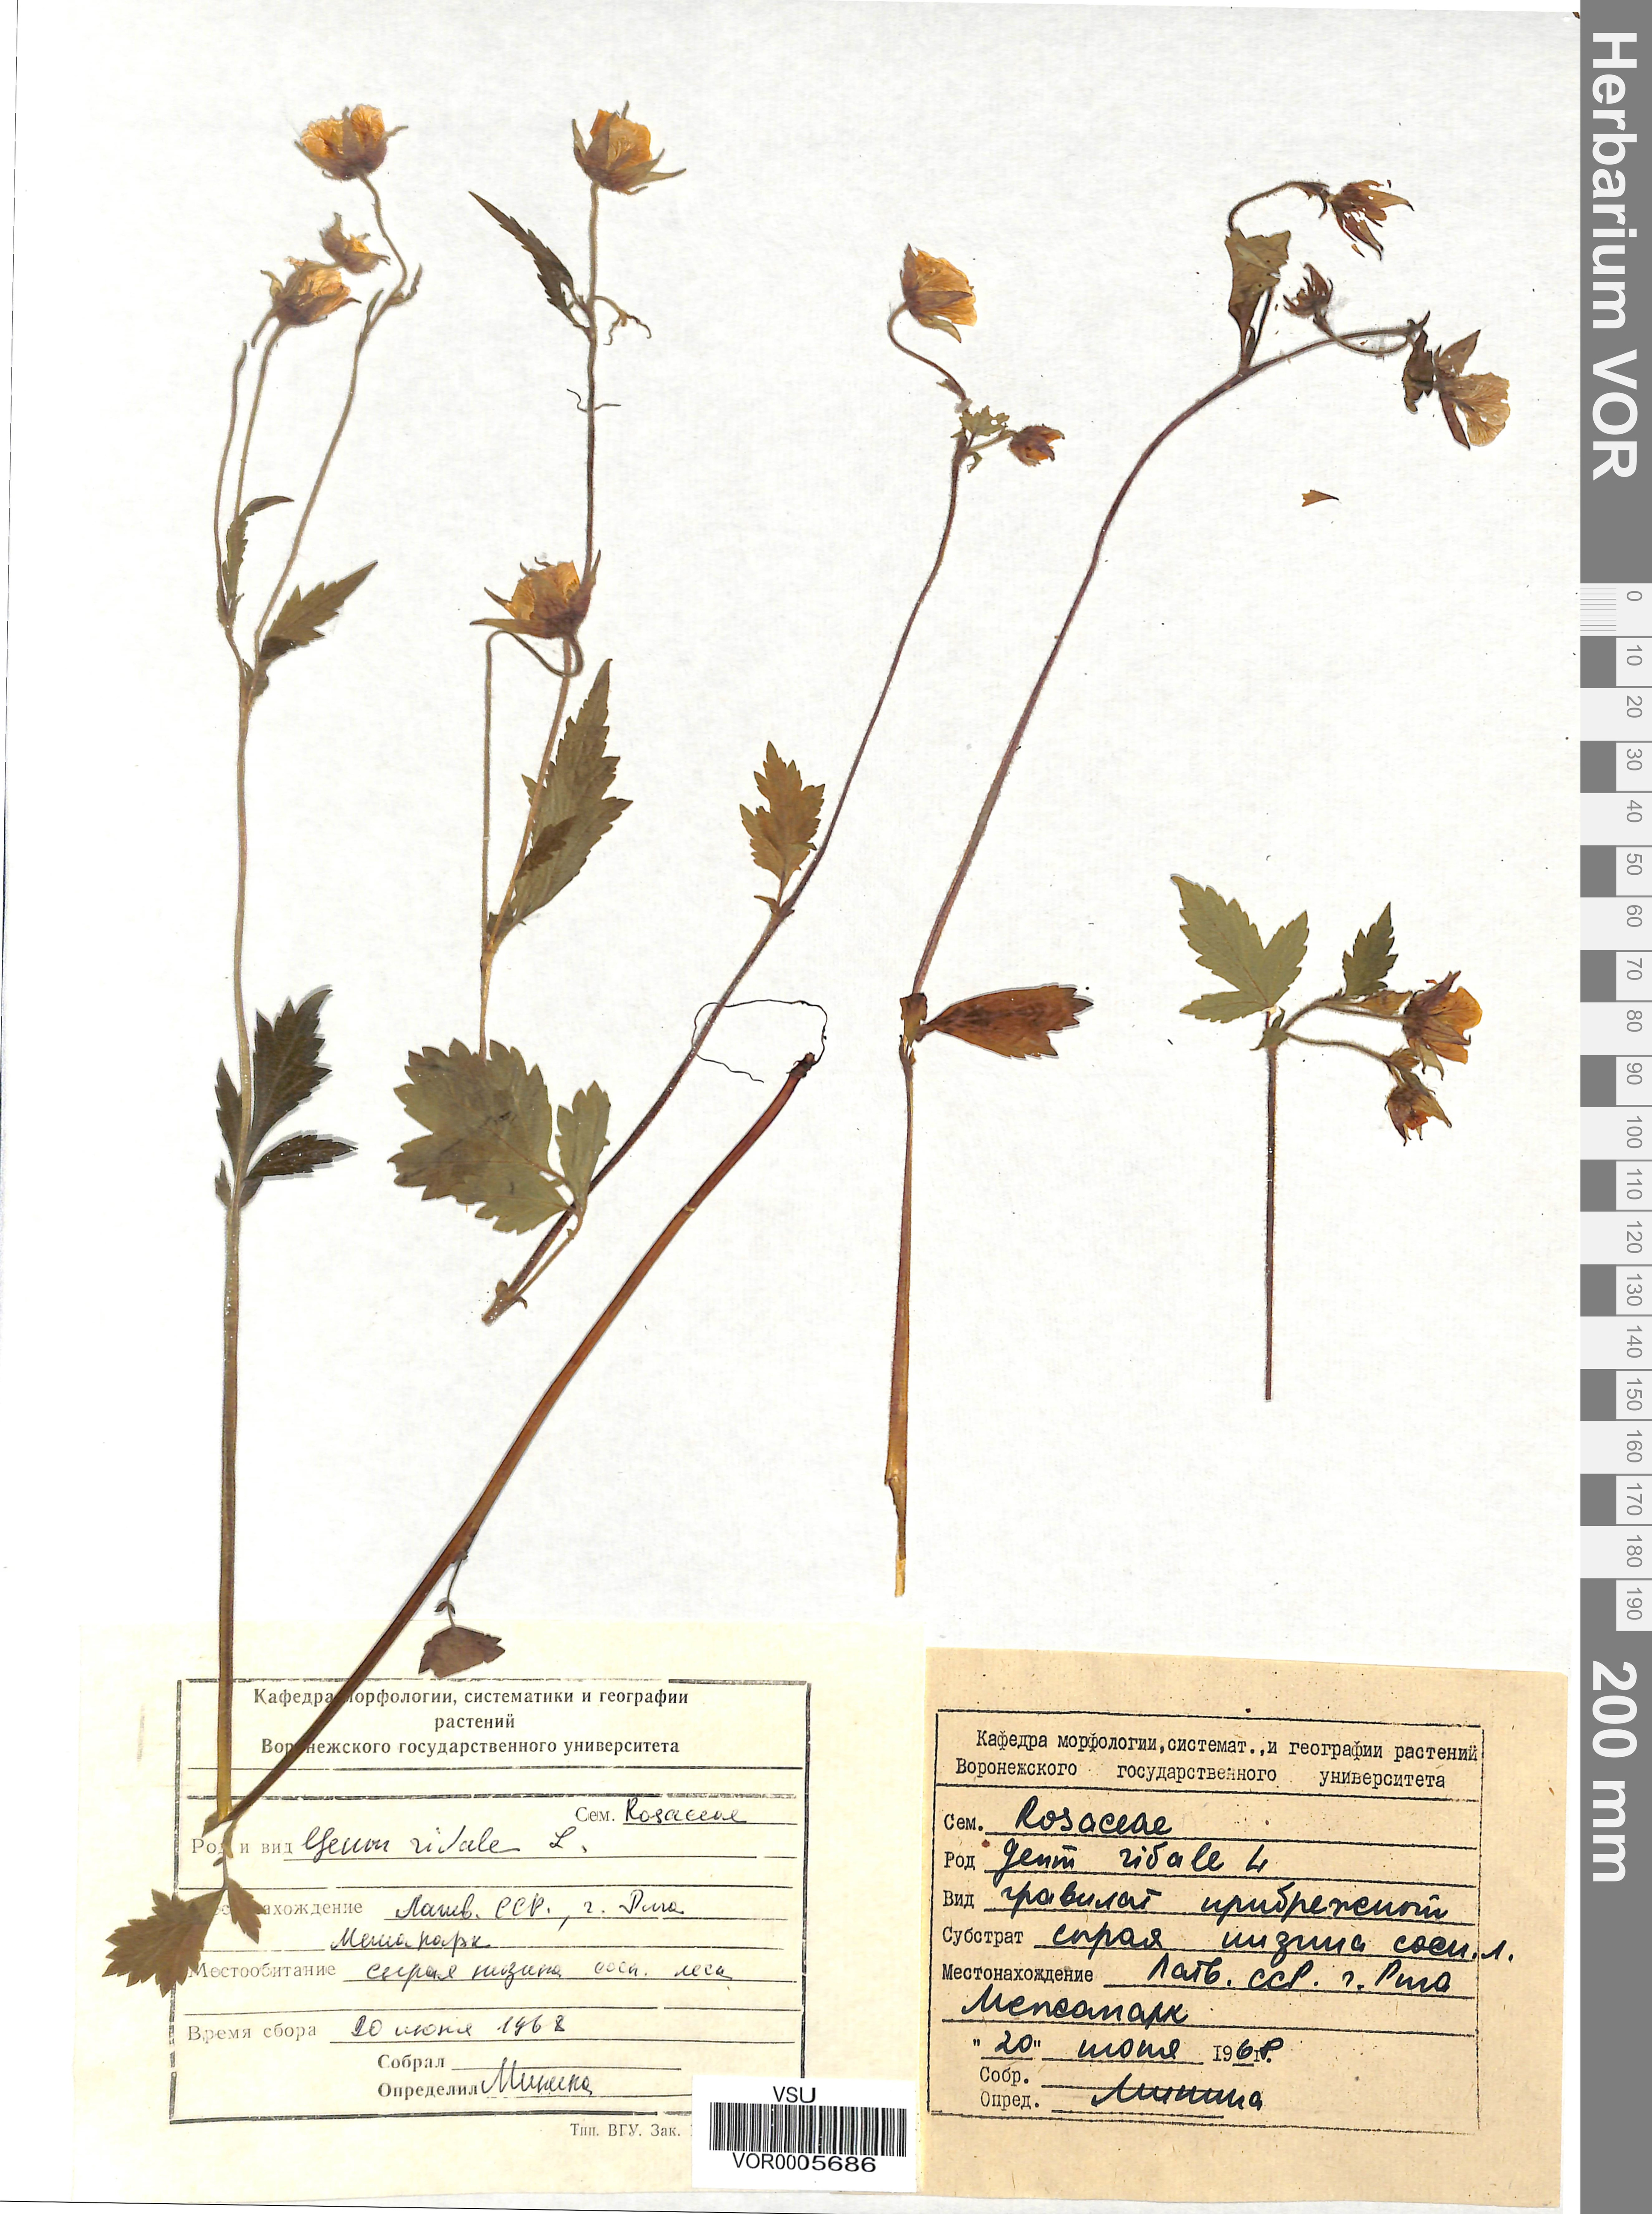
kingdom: Plantae
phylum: Tracheophyta
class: Magnoliopsida
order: Rosales
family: Rosaceae
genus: Geum
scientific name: Geum rivale
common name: Water avens
